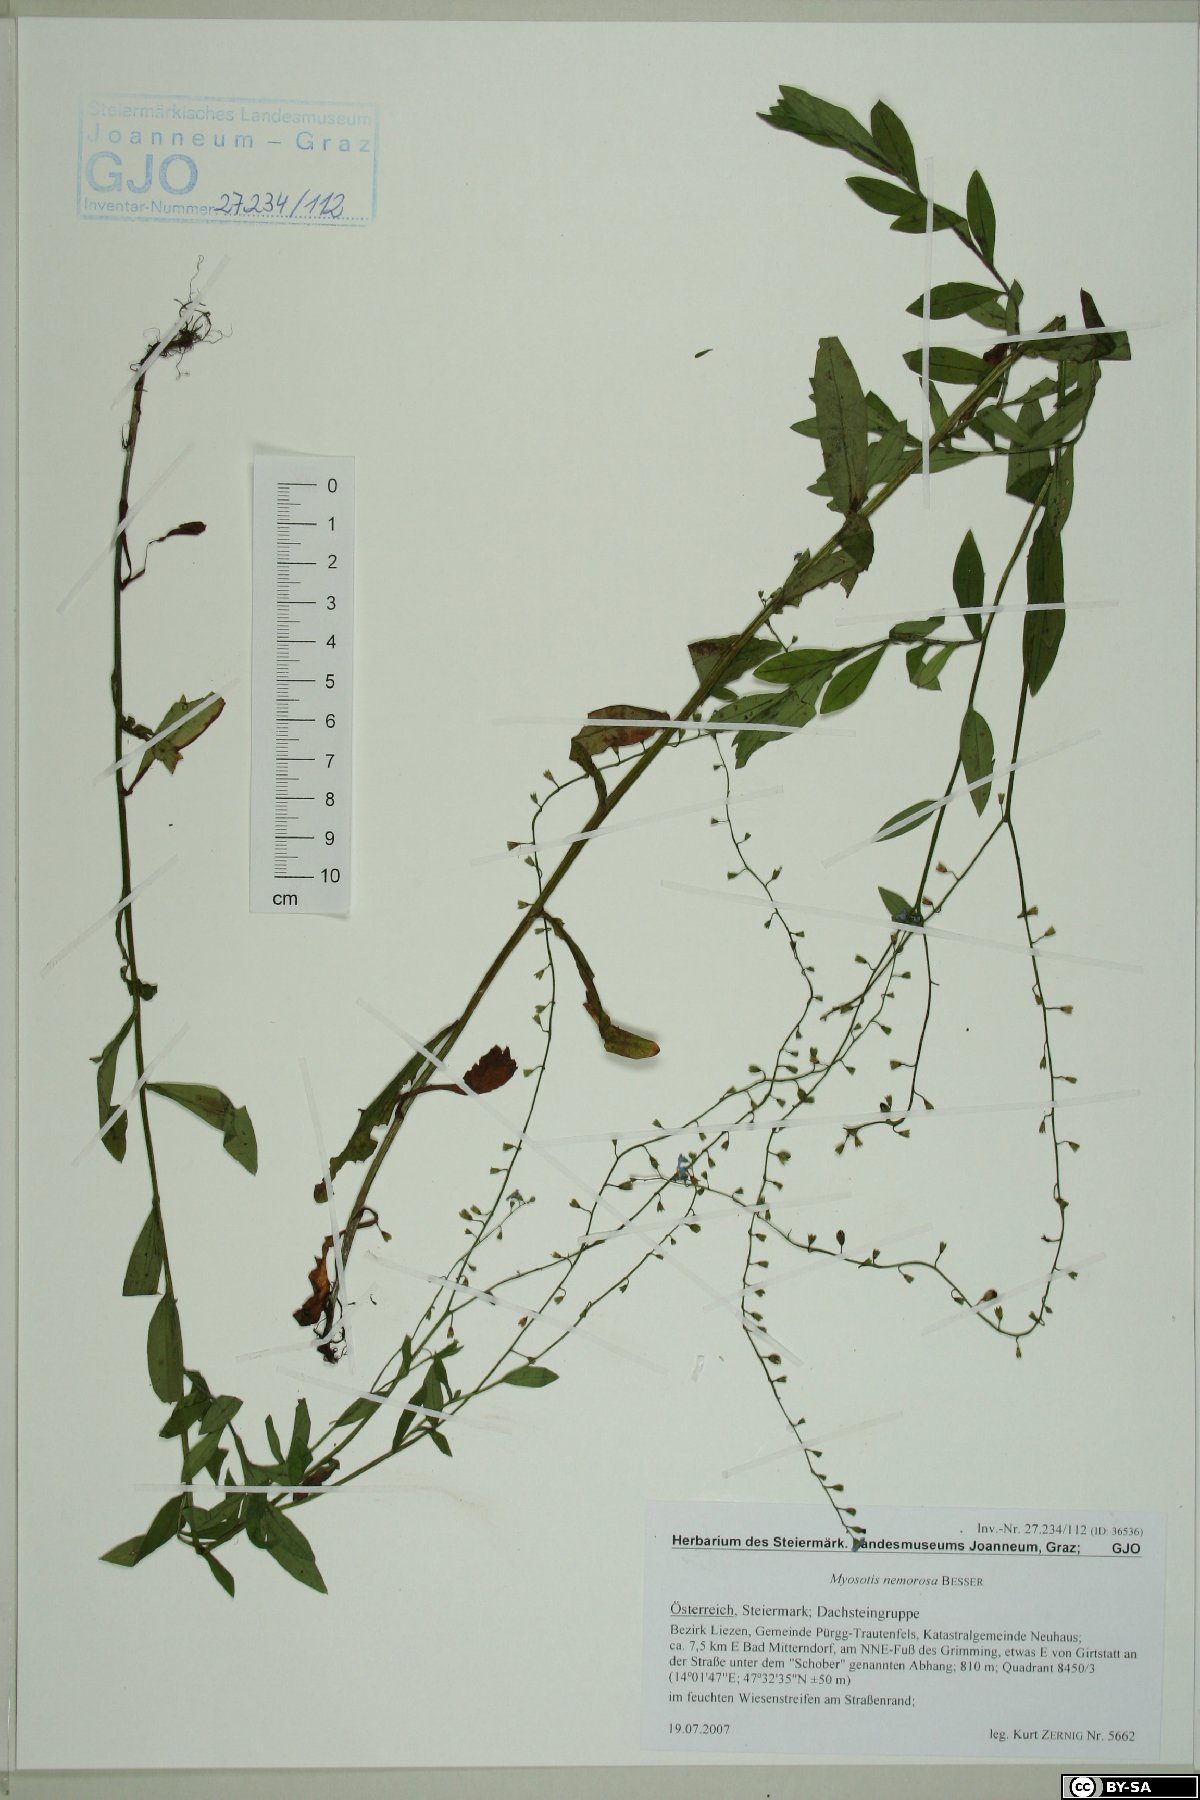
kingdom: Plantae
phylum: Tracheophyta
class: Magnoliopsida
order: Boraginales
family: Boraginaceae
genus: Myosotis
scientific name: Myosotis nemorosa
